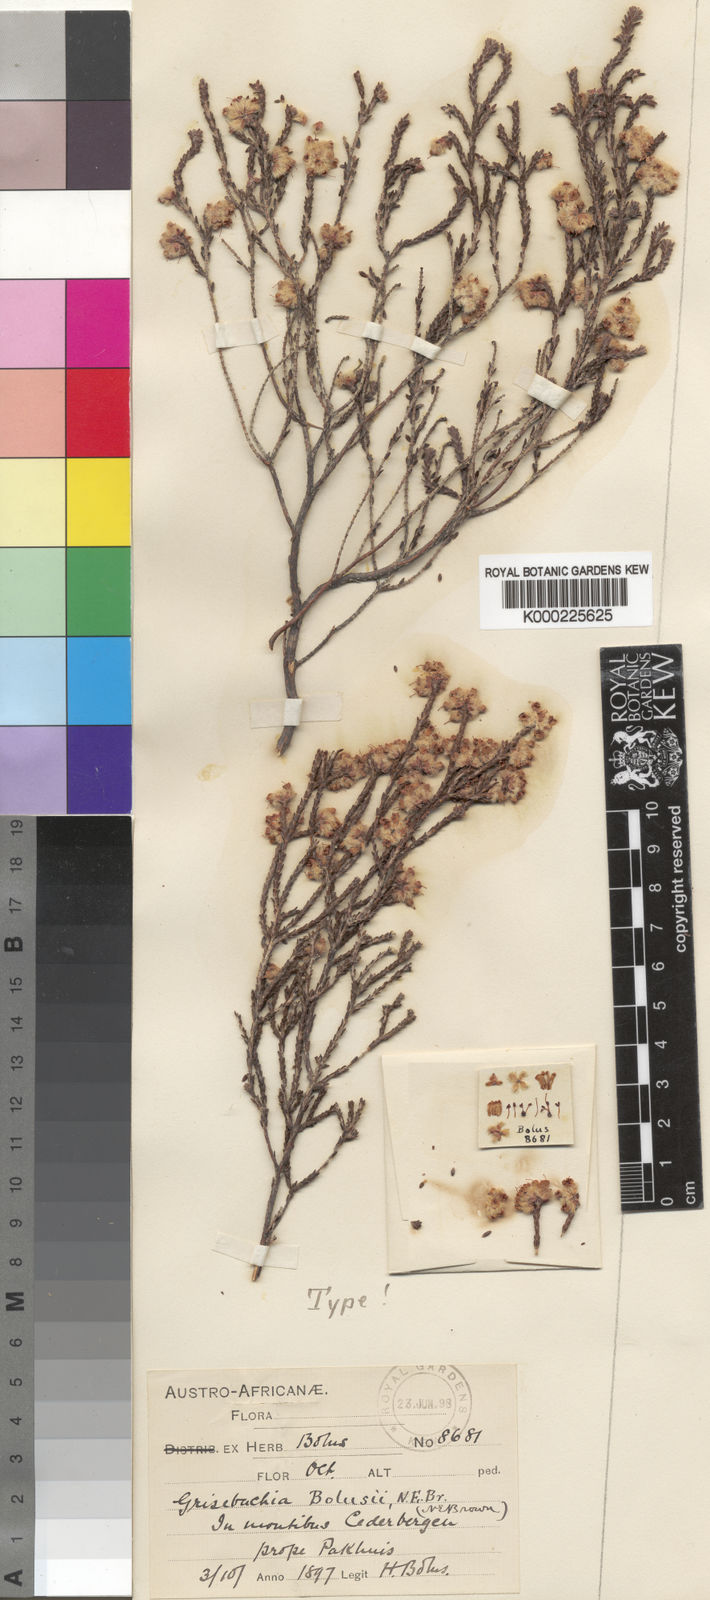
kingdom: Plantae
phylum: Tracheophyta
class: Magnoliopsida
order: Ericales
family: Ericaceae
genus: Erica
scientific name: Erica plumosa
